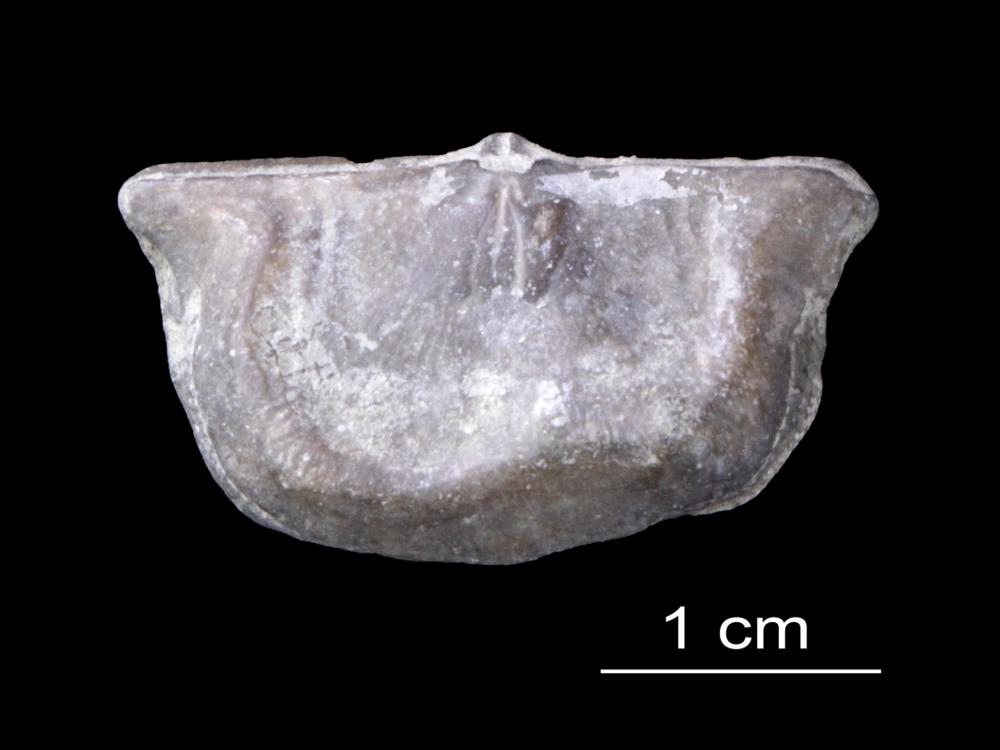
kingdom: Animalia
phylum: Brachiopoda
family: Strophomenidae
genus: Leptaena
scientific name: Leptaena Strophomena rhomboidalis
